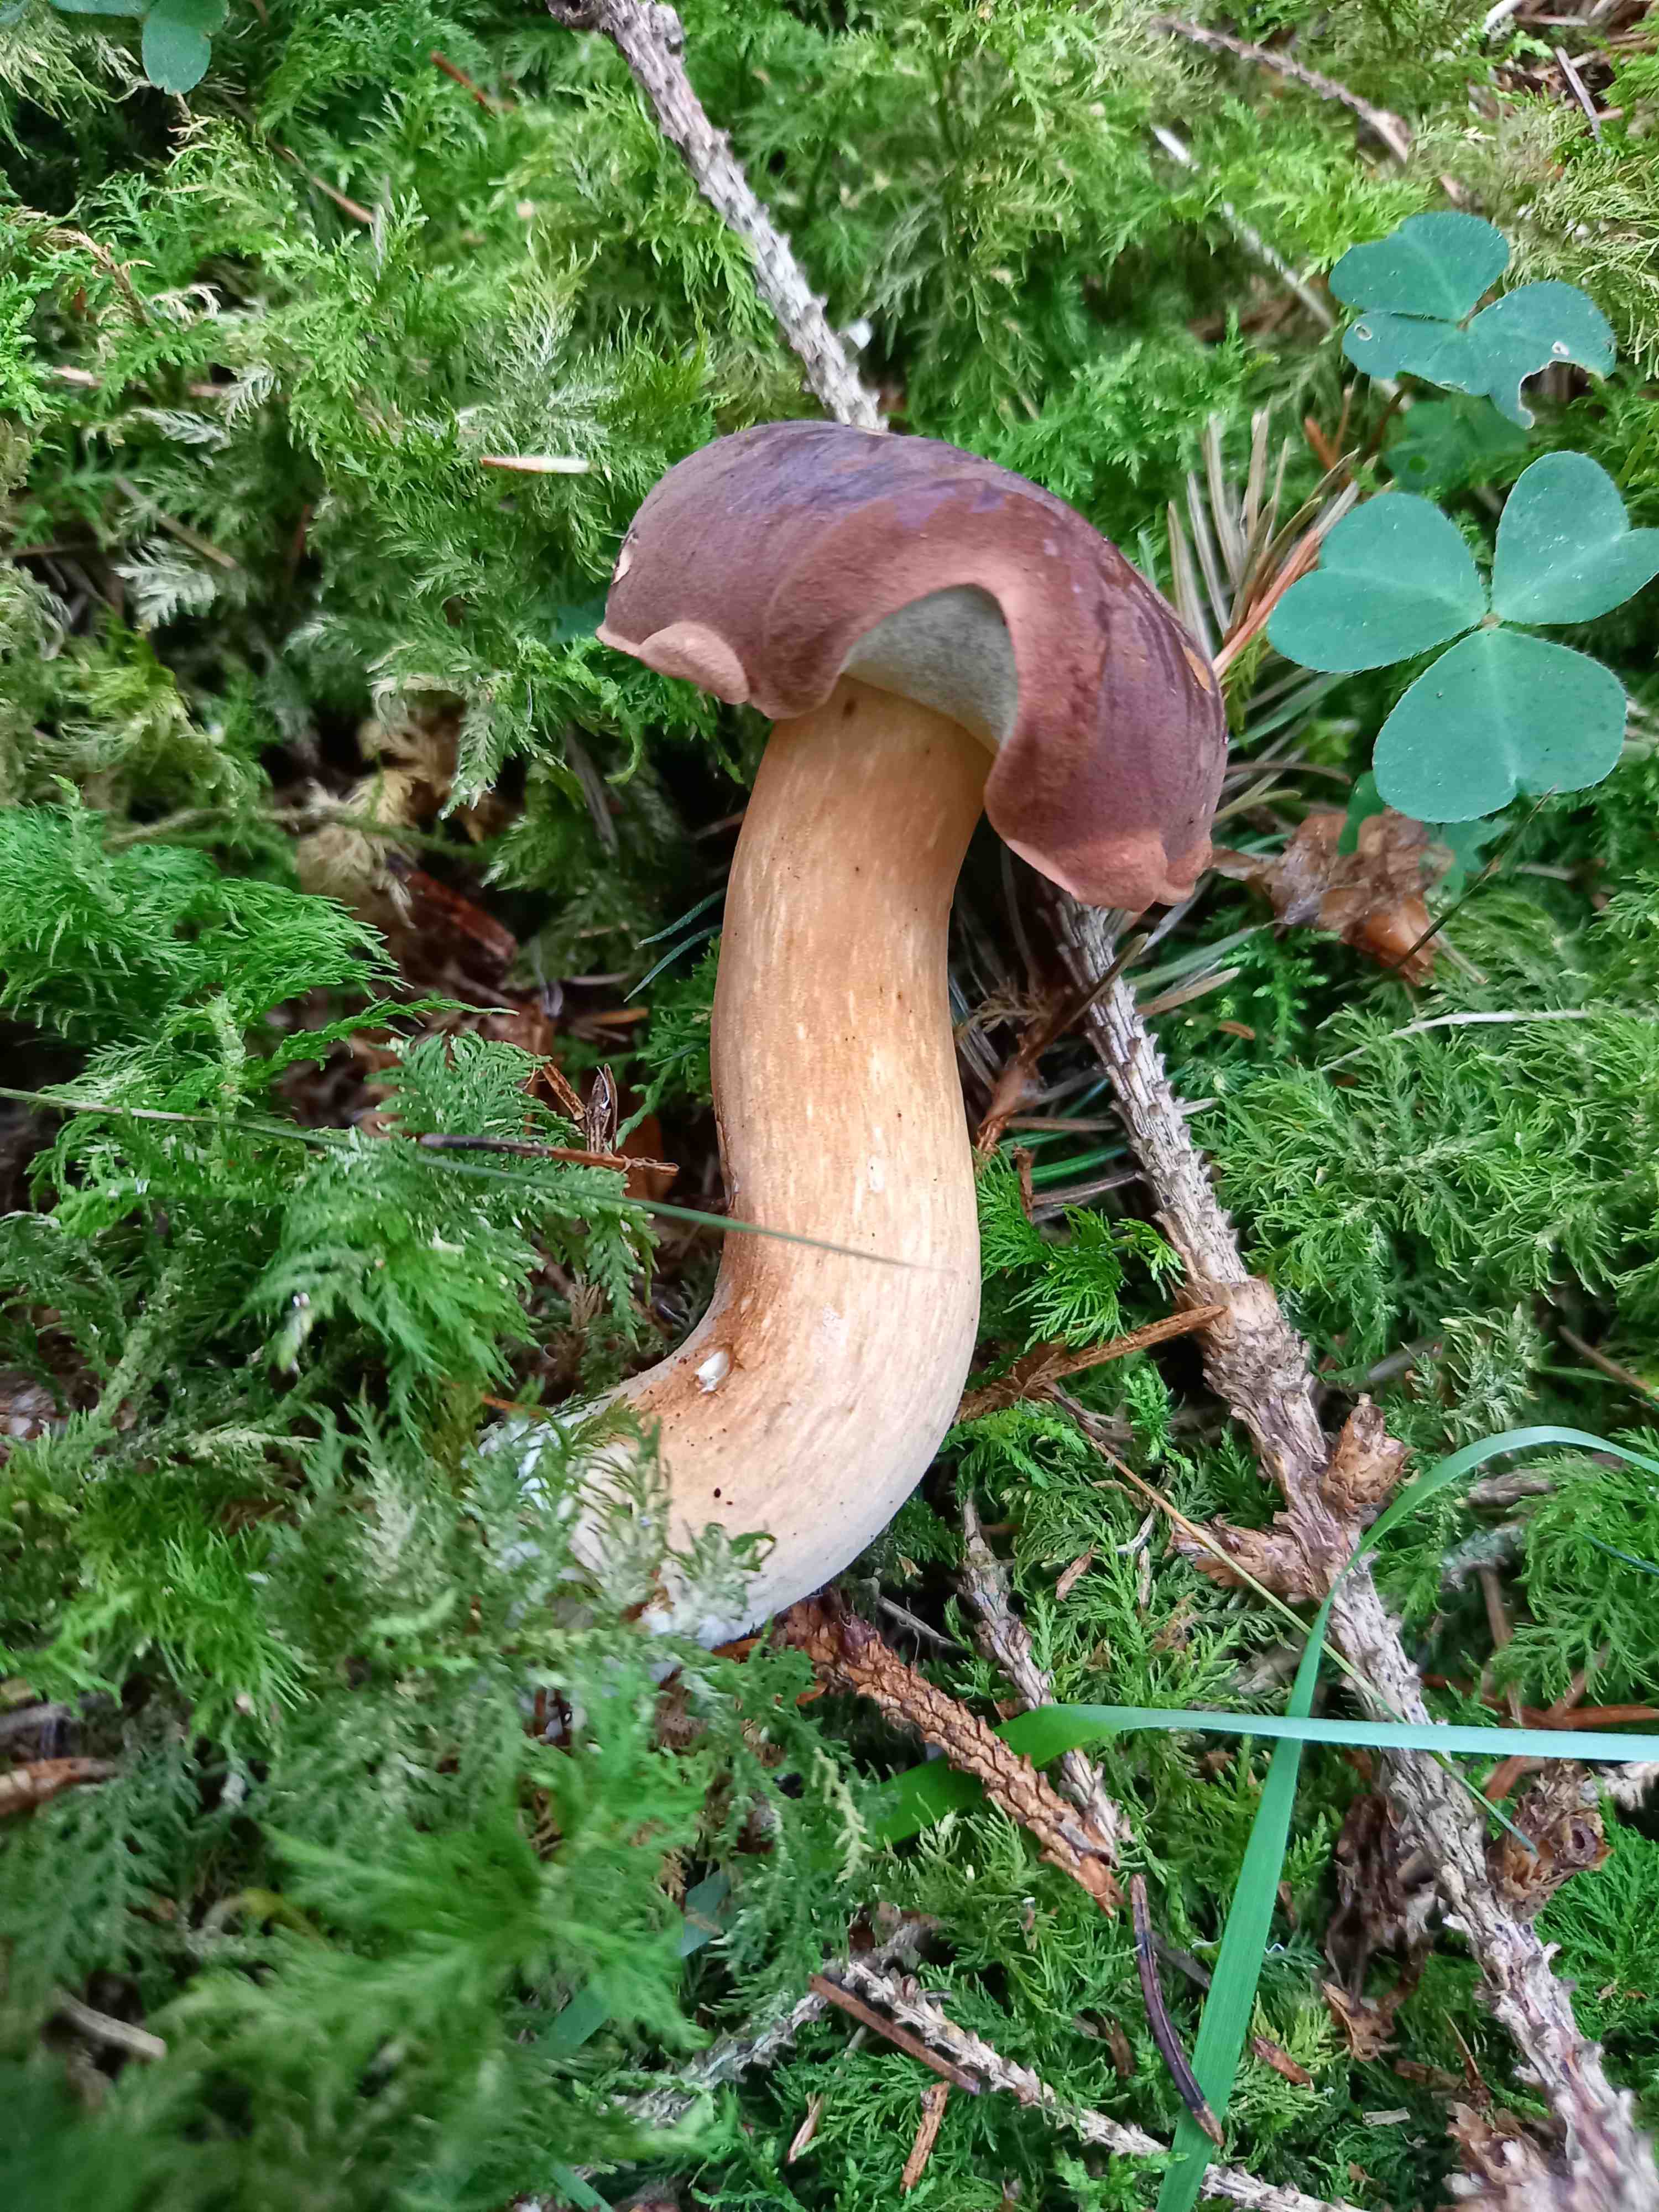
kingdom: Fungi
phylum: Basidiomycota
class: Agaricomycetes
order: Boletales
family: Boletaceae
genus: Imleria
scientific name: Imleria badia
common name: brunstokket rørhat
